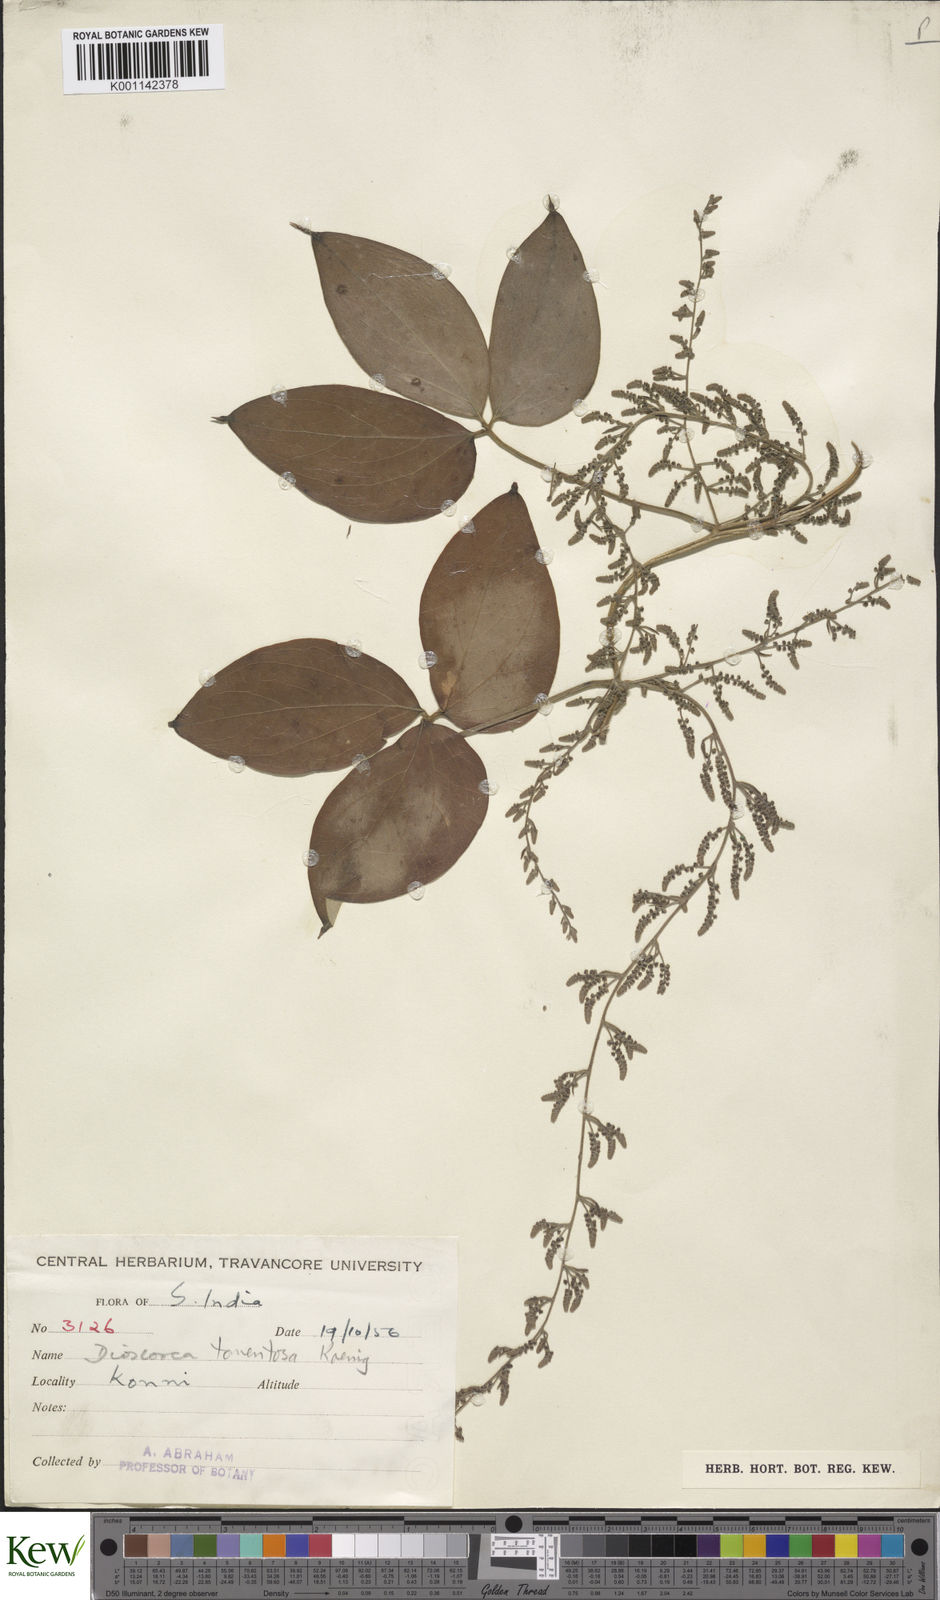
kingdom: Plantae
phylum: Tracheophyta
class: Liliopsida
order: Dioscoreales
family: Dioscoreaceae
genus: Dioscorea
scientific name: Dioscorea
